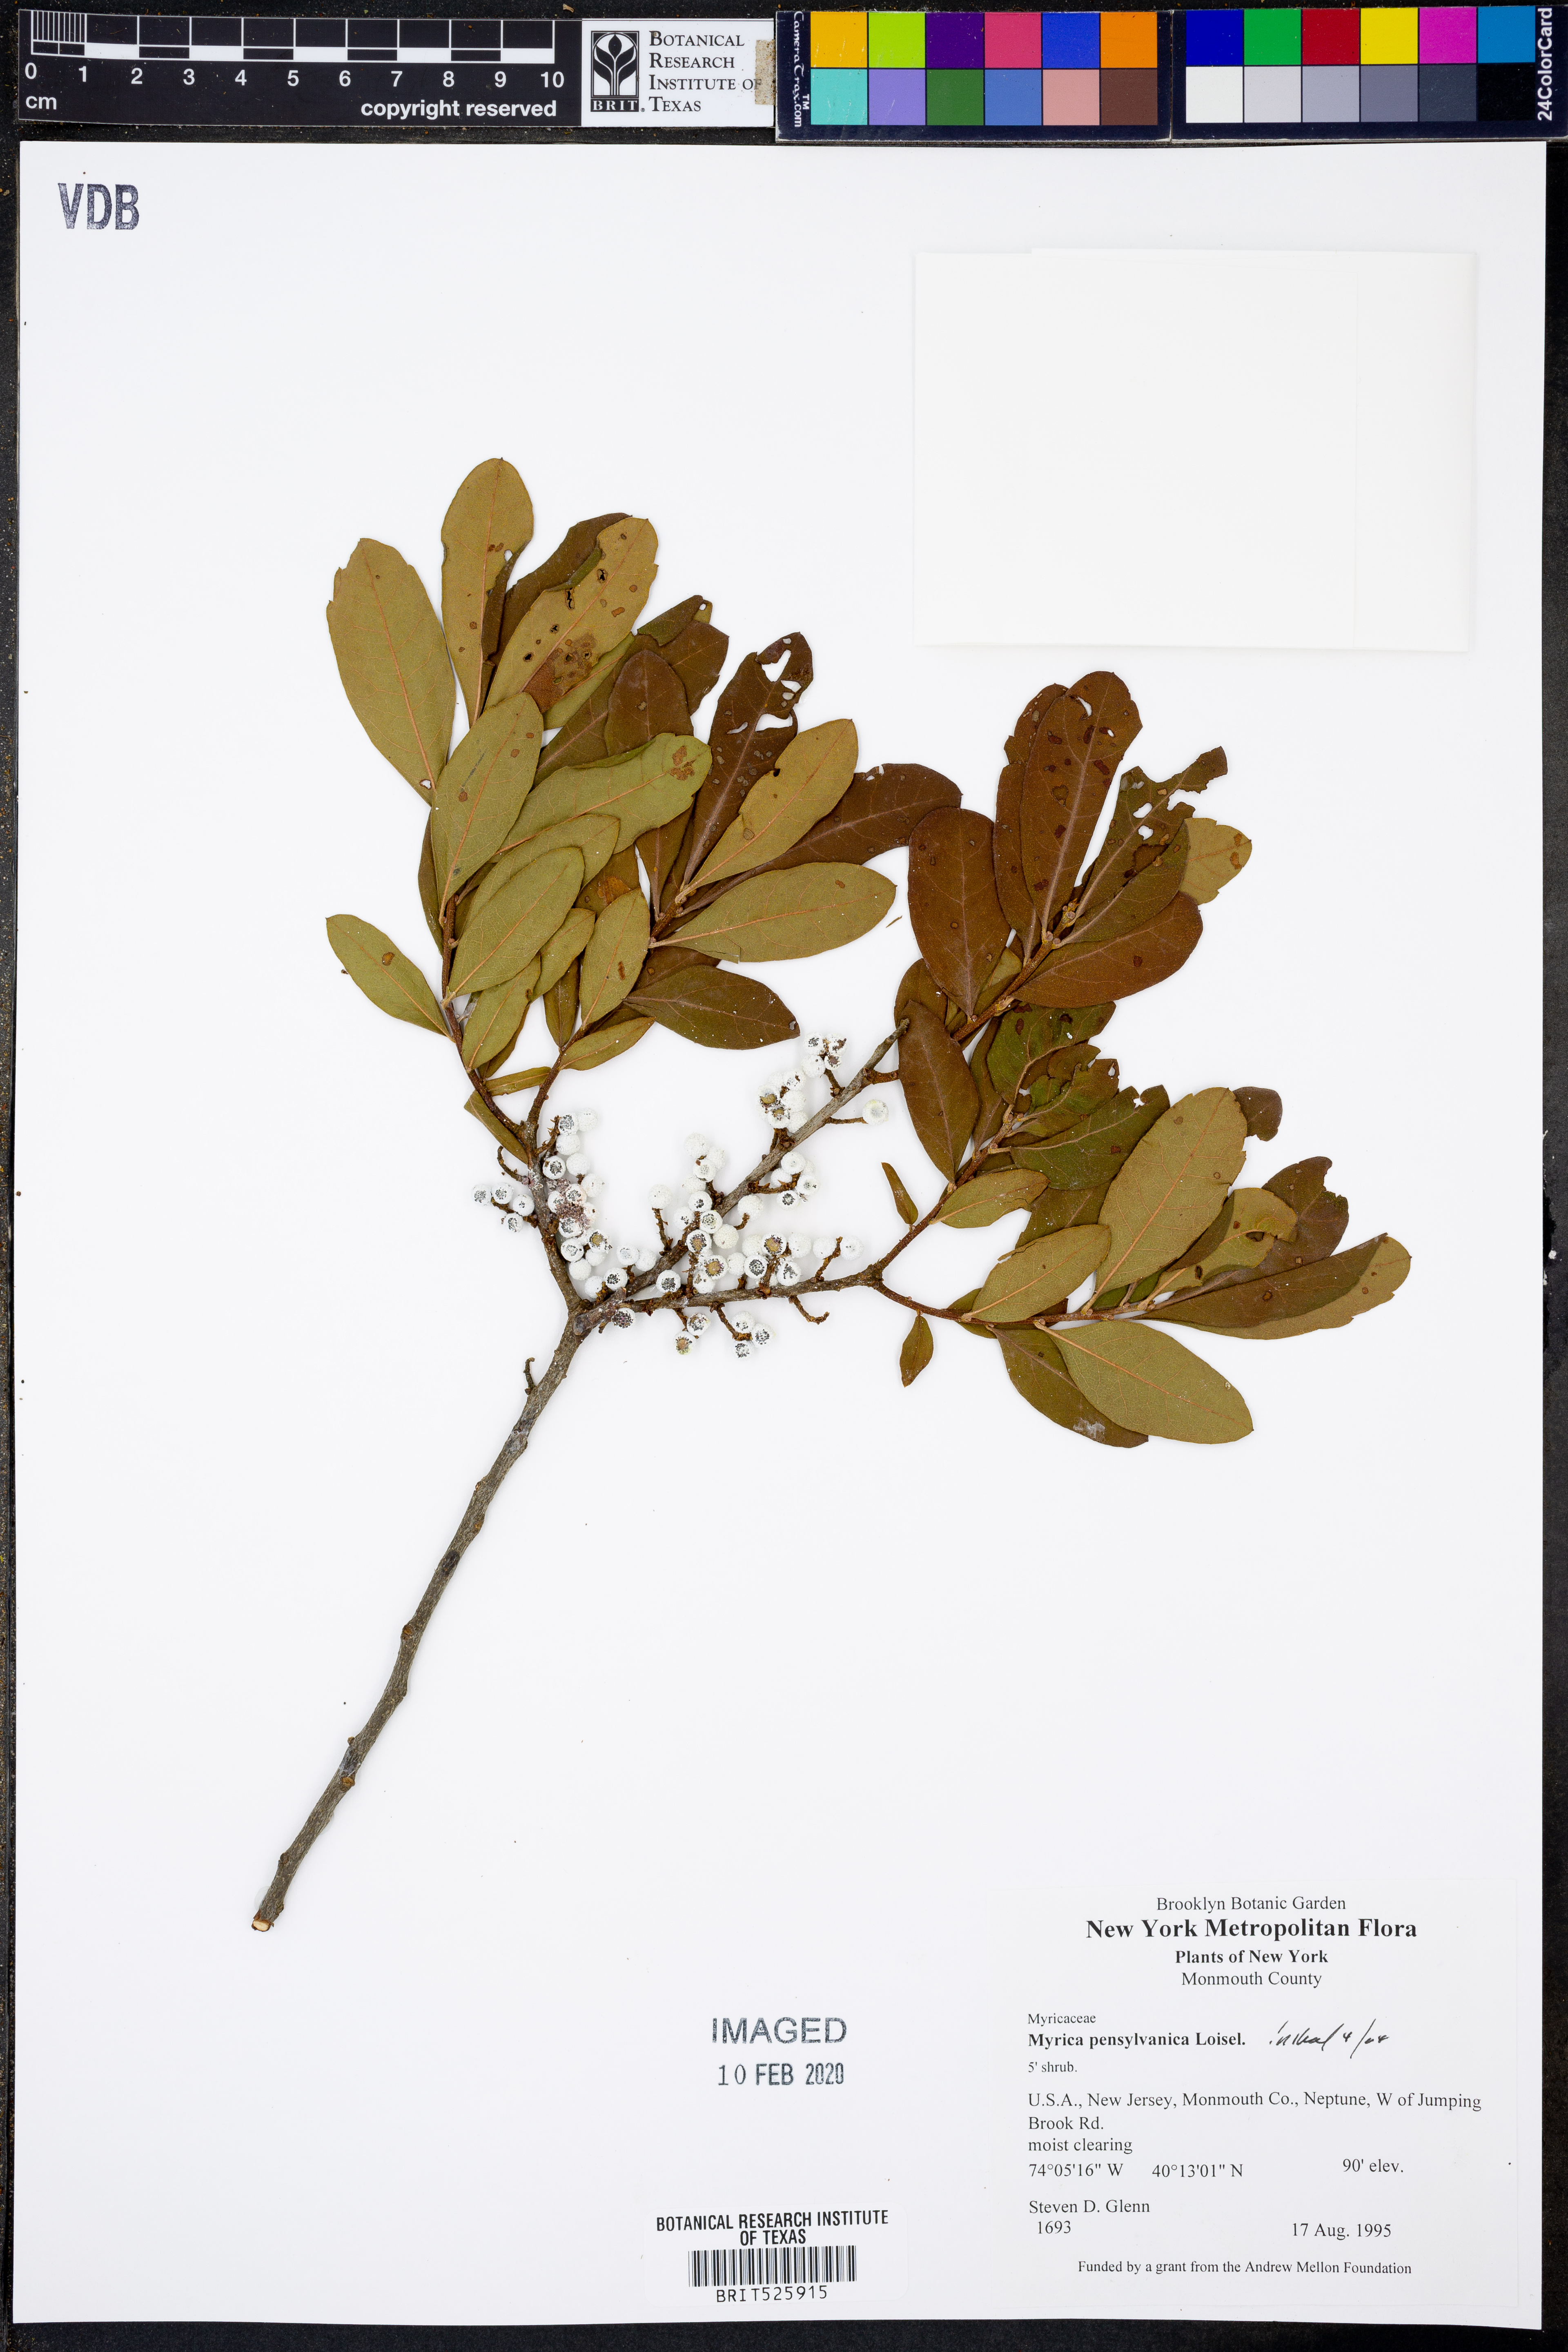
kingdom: Plantae
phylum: Tracheophyta
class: Magnoliopsida
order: Fagales
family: Myricaceae
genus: Morella
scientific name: Morella pensylvanica
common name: Northern bayberry
